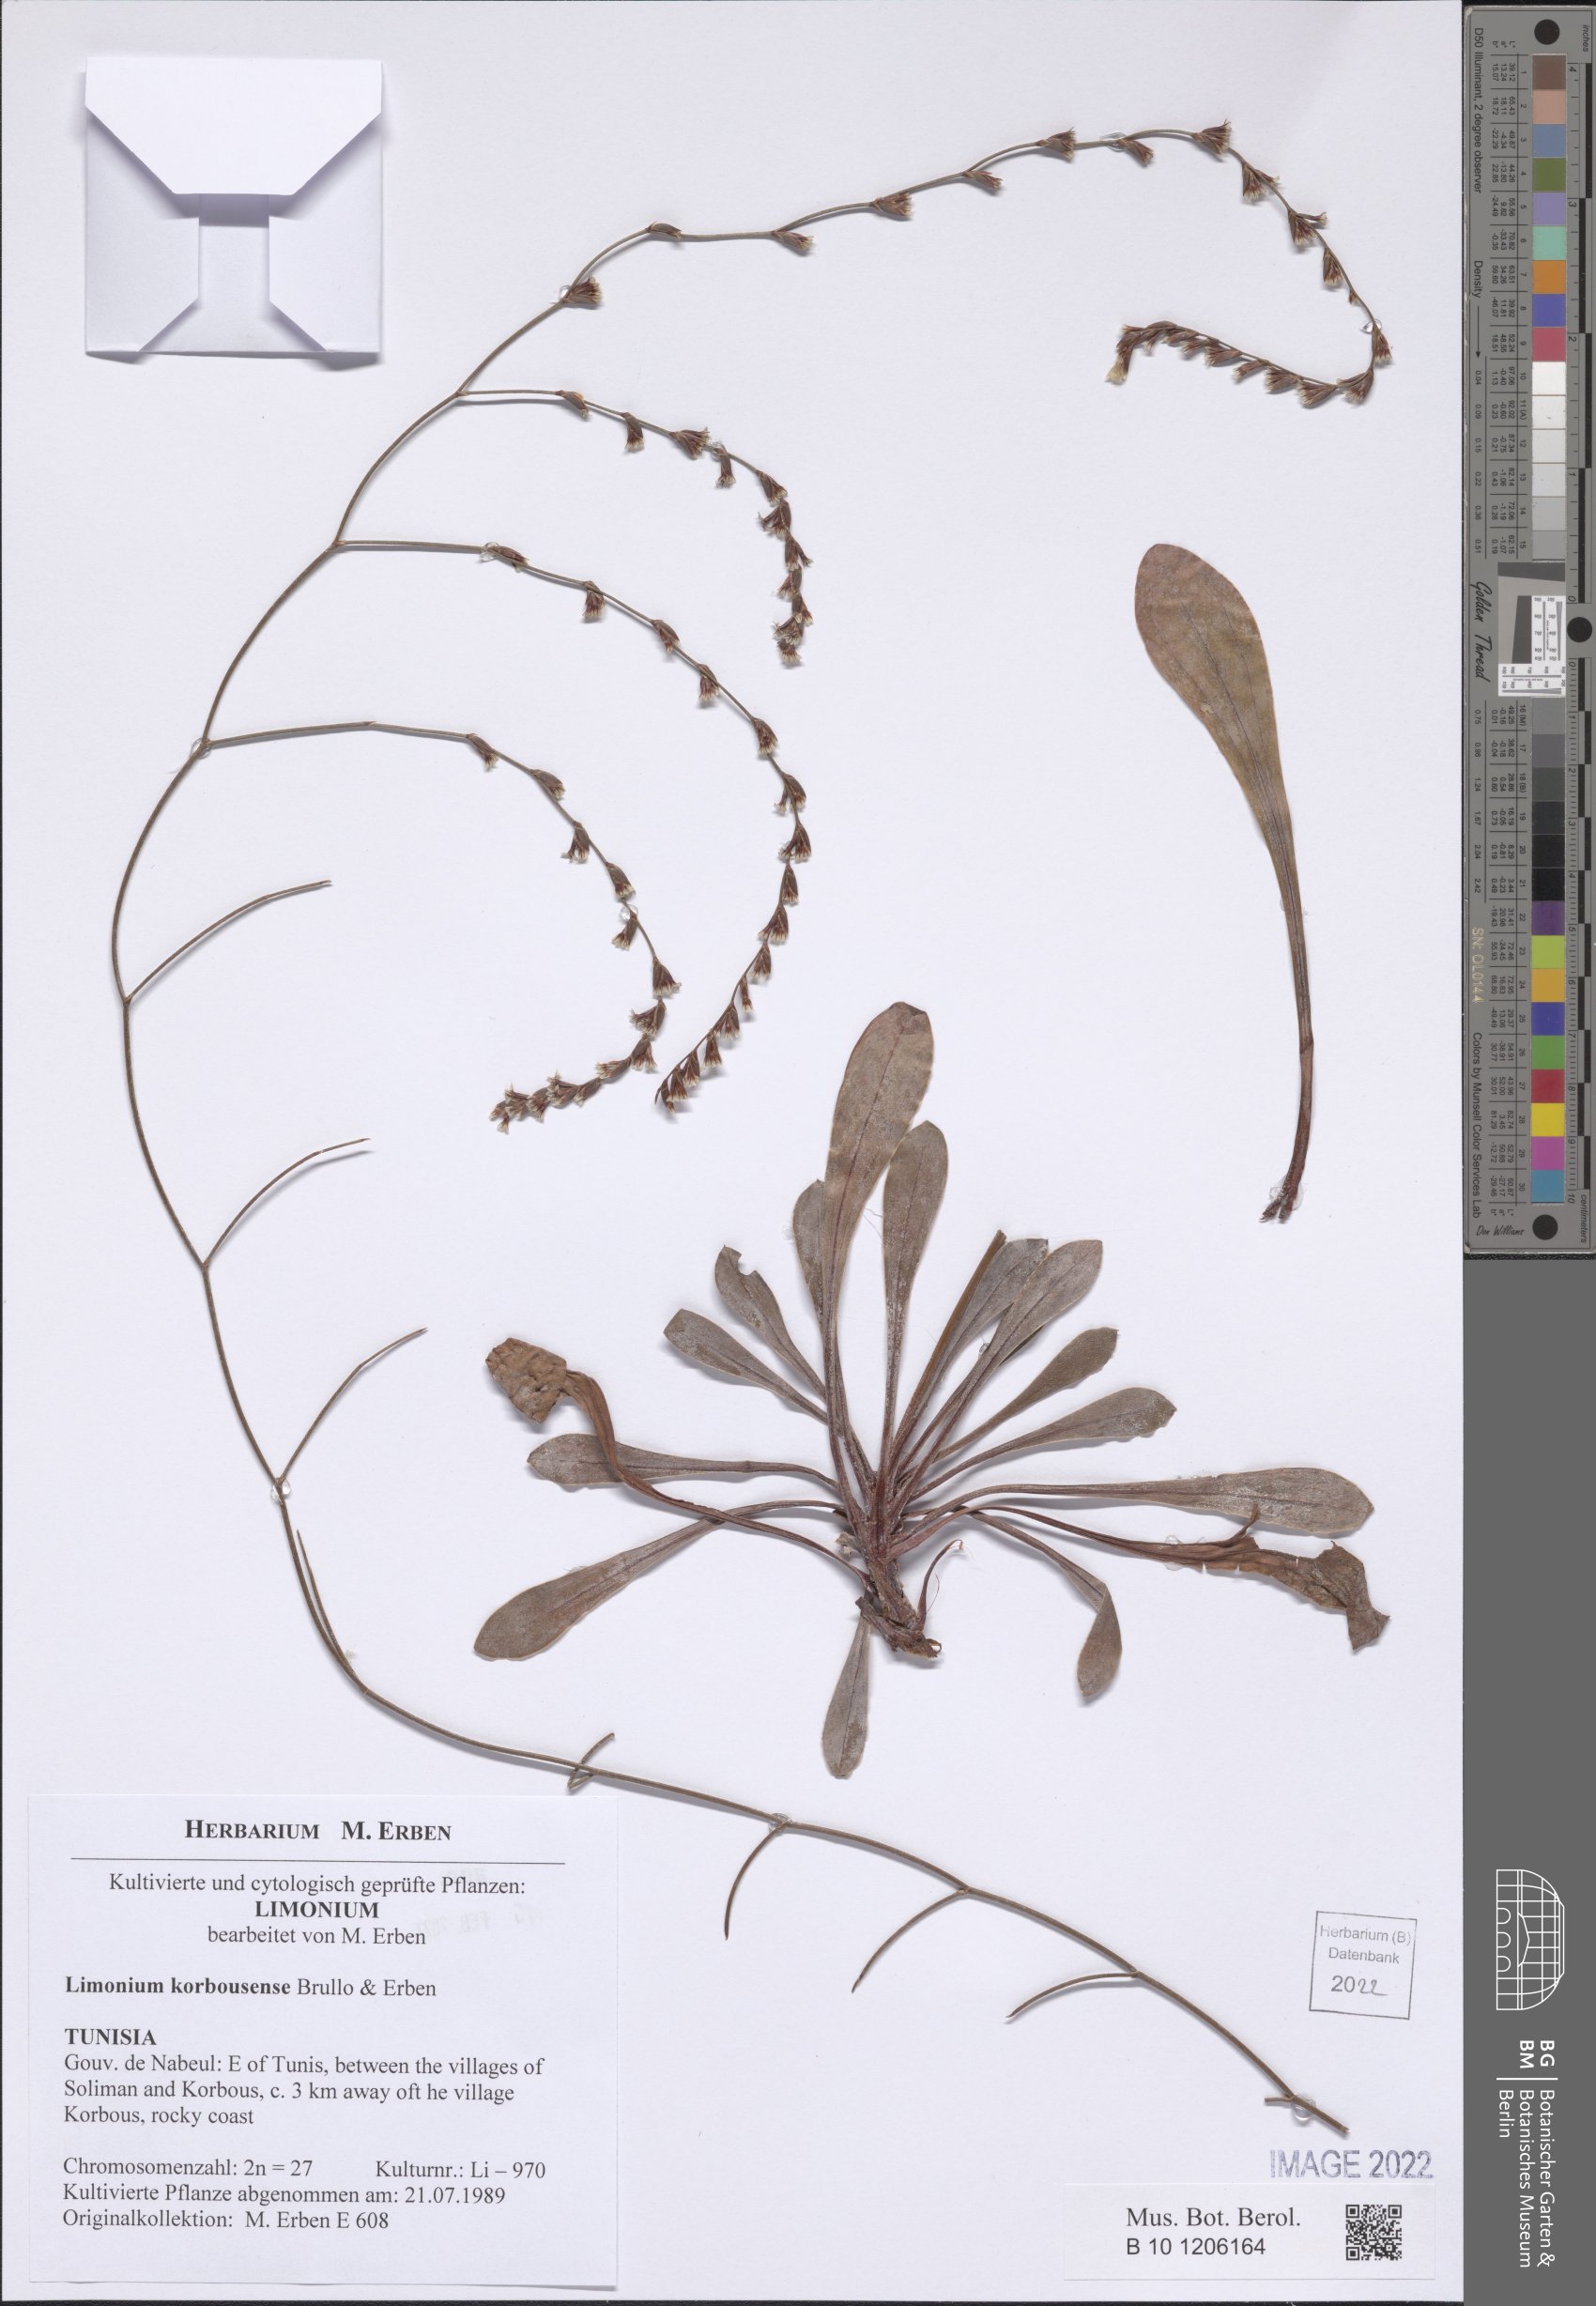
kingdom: Plantae
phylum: Tracheophyta
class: Magnoliopsida
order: Caryophyllales
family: Plumbaginaceae
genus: Limonium
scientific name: Limonium korbousense
